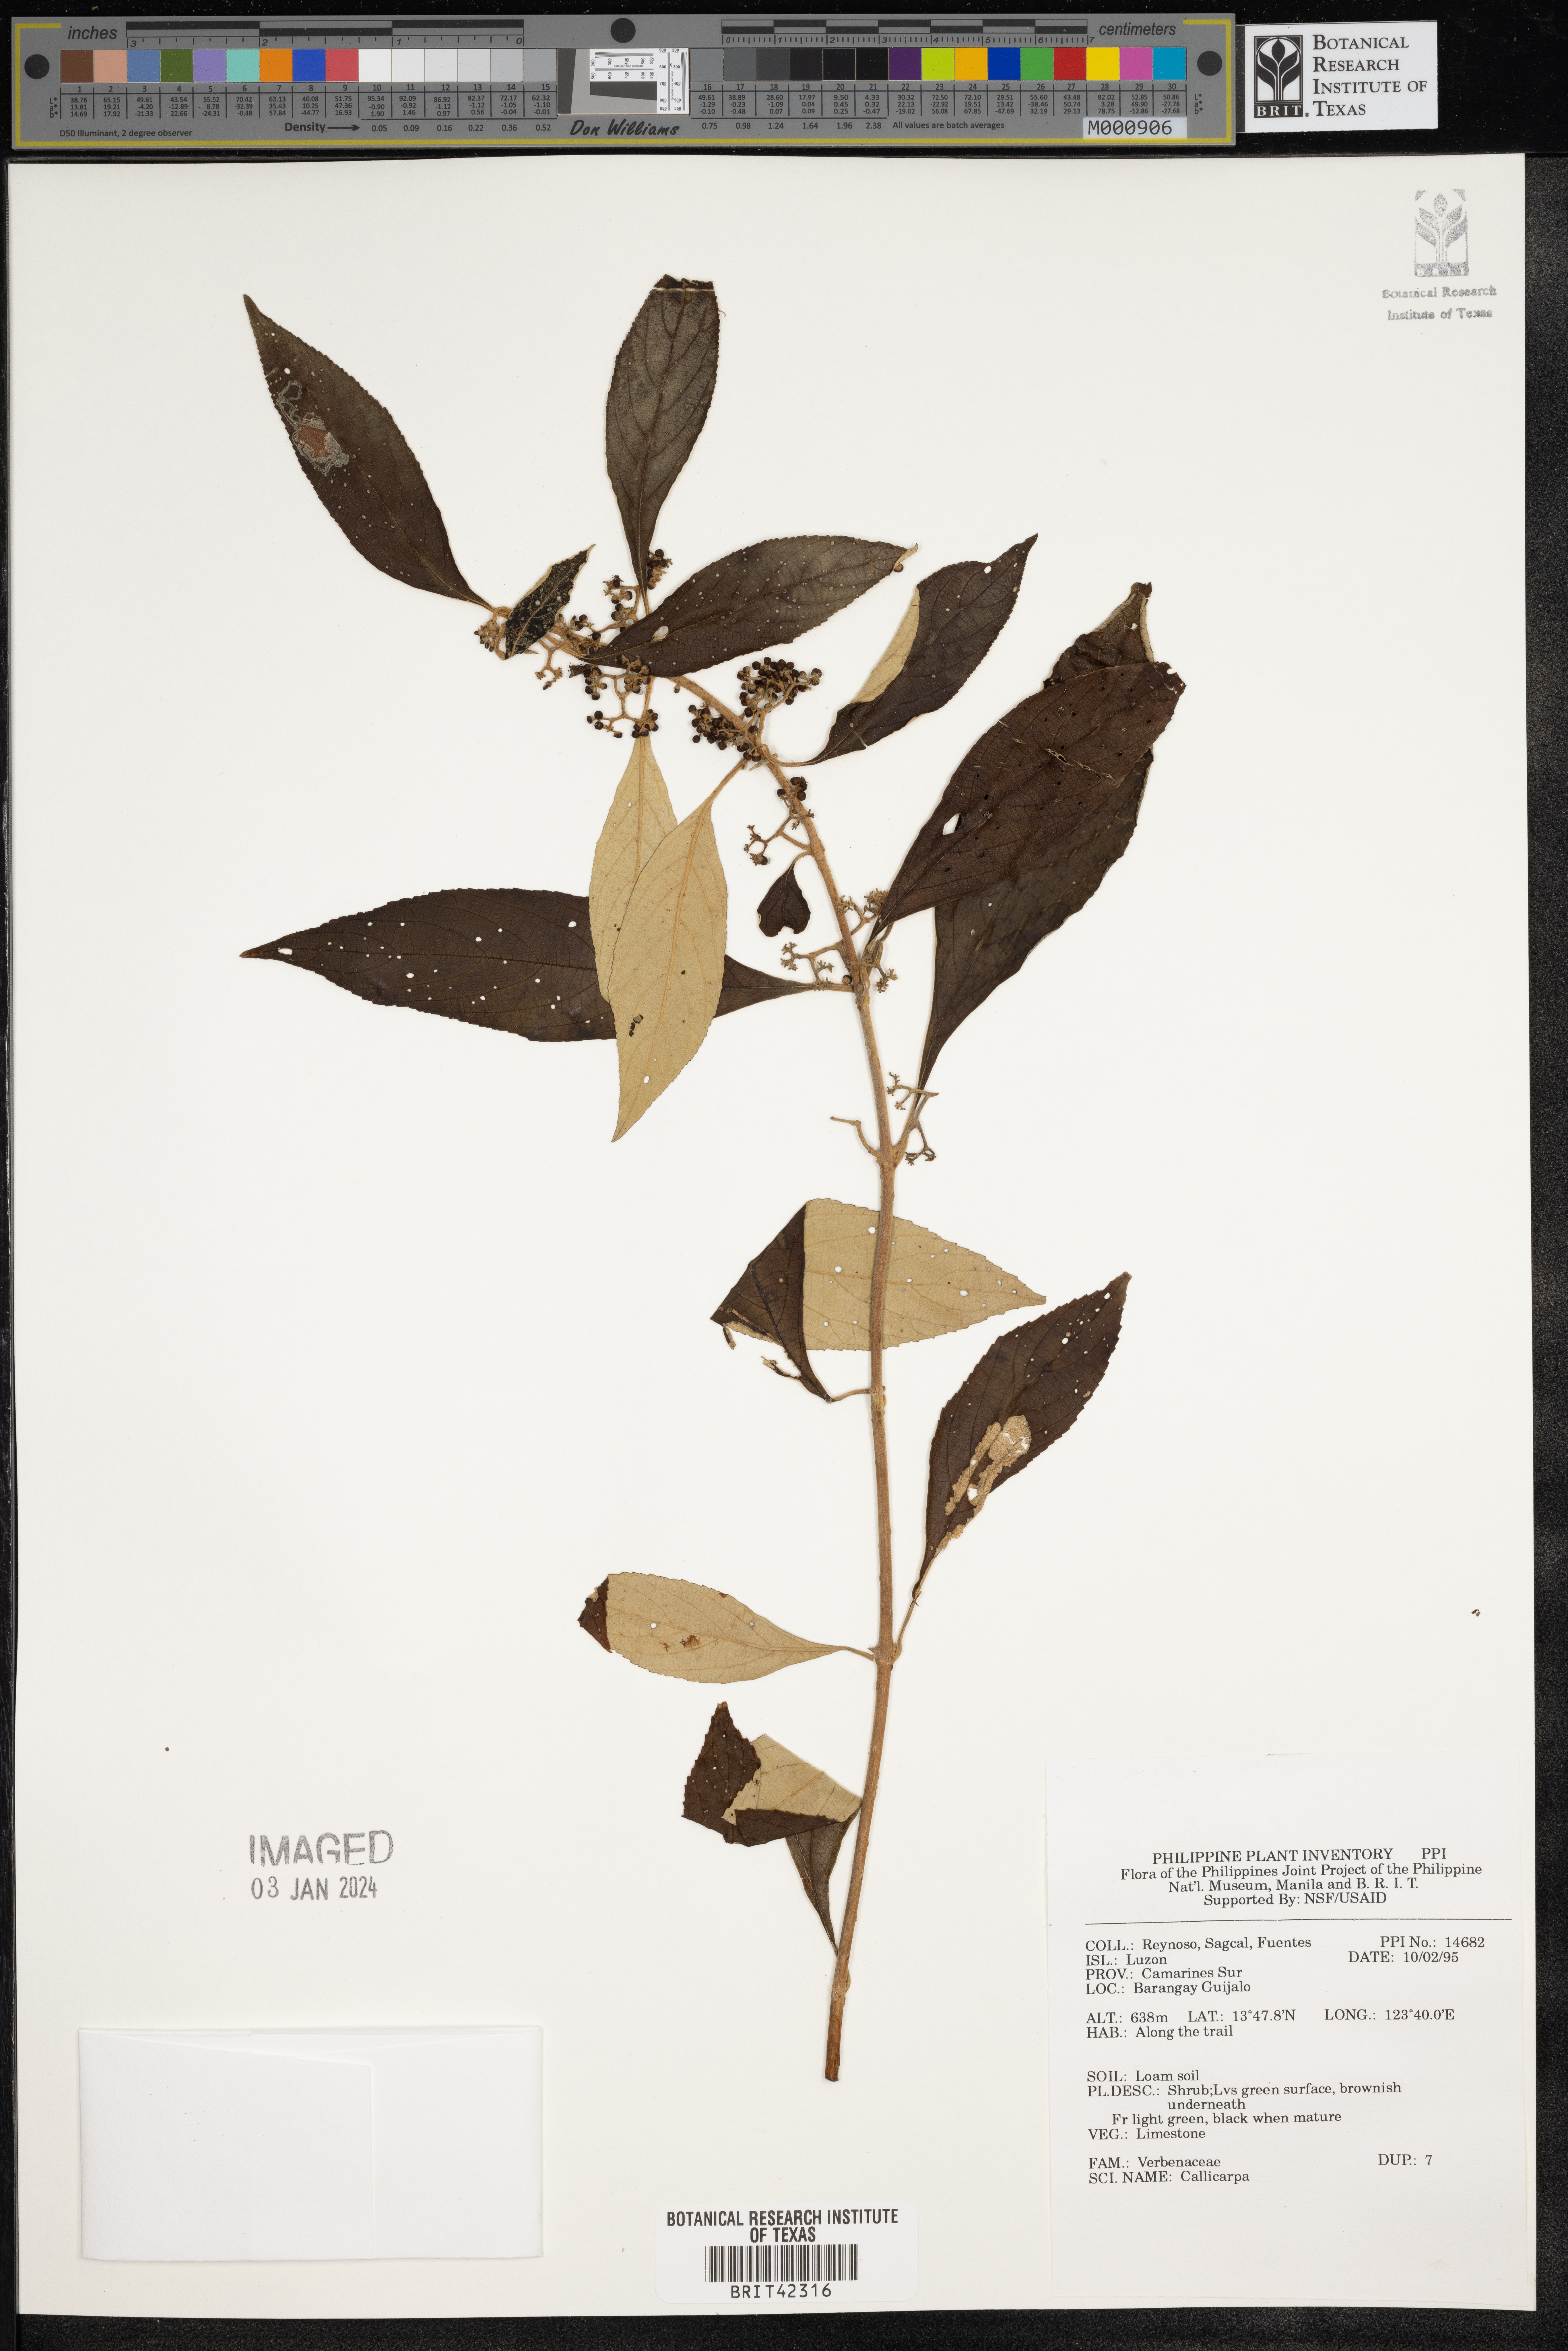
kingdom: Plantae
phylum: Tracheophyta
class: Magnoliopsida
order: Lamiales
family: Lamiaceae
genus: Callicarpa
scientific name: Callicarpa
